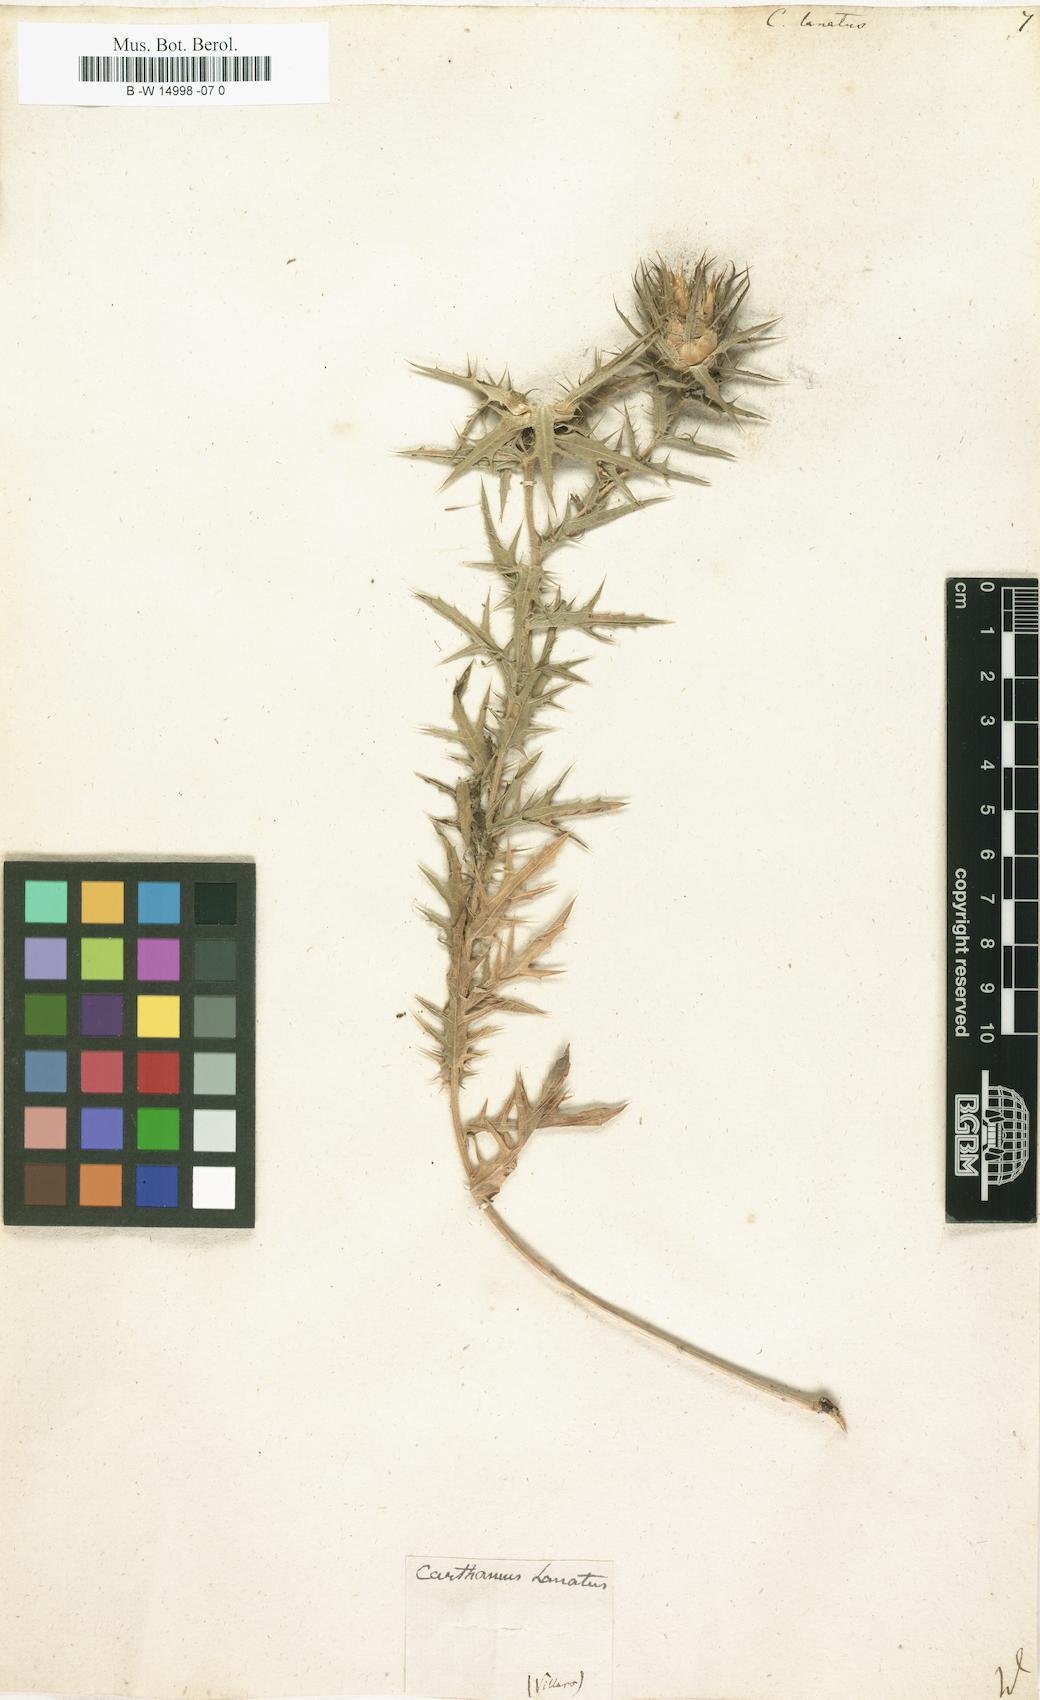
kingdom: Plantae
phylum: Tracheophyta
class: Magnoliopsida
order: Asterales
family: Asteraceae
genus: Carthamus
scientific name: Carthamus lanatus
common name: Downy safflower
